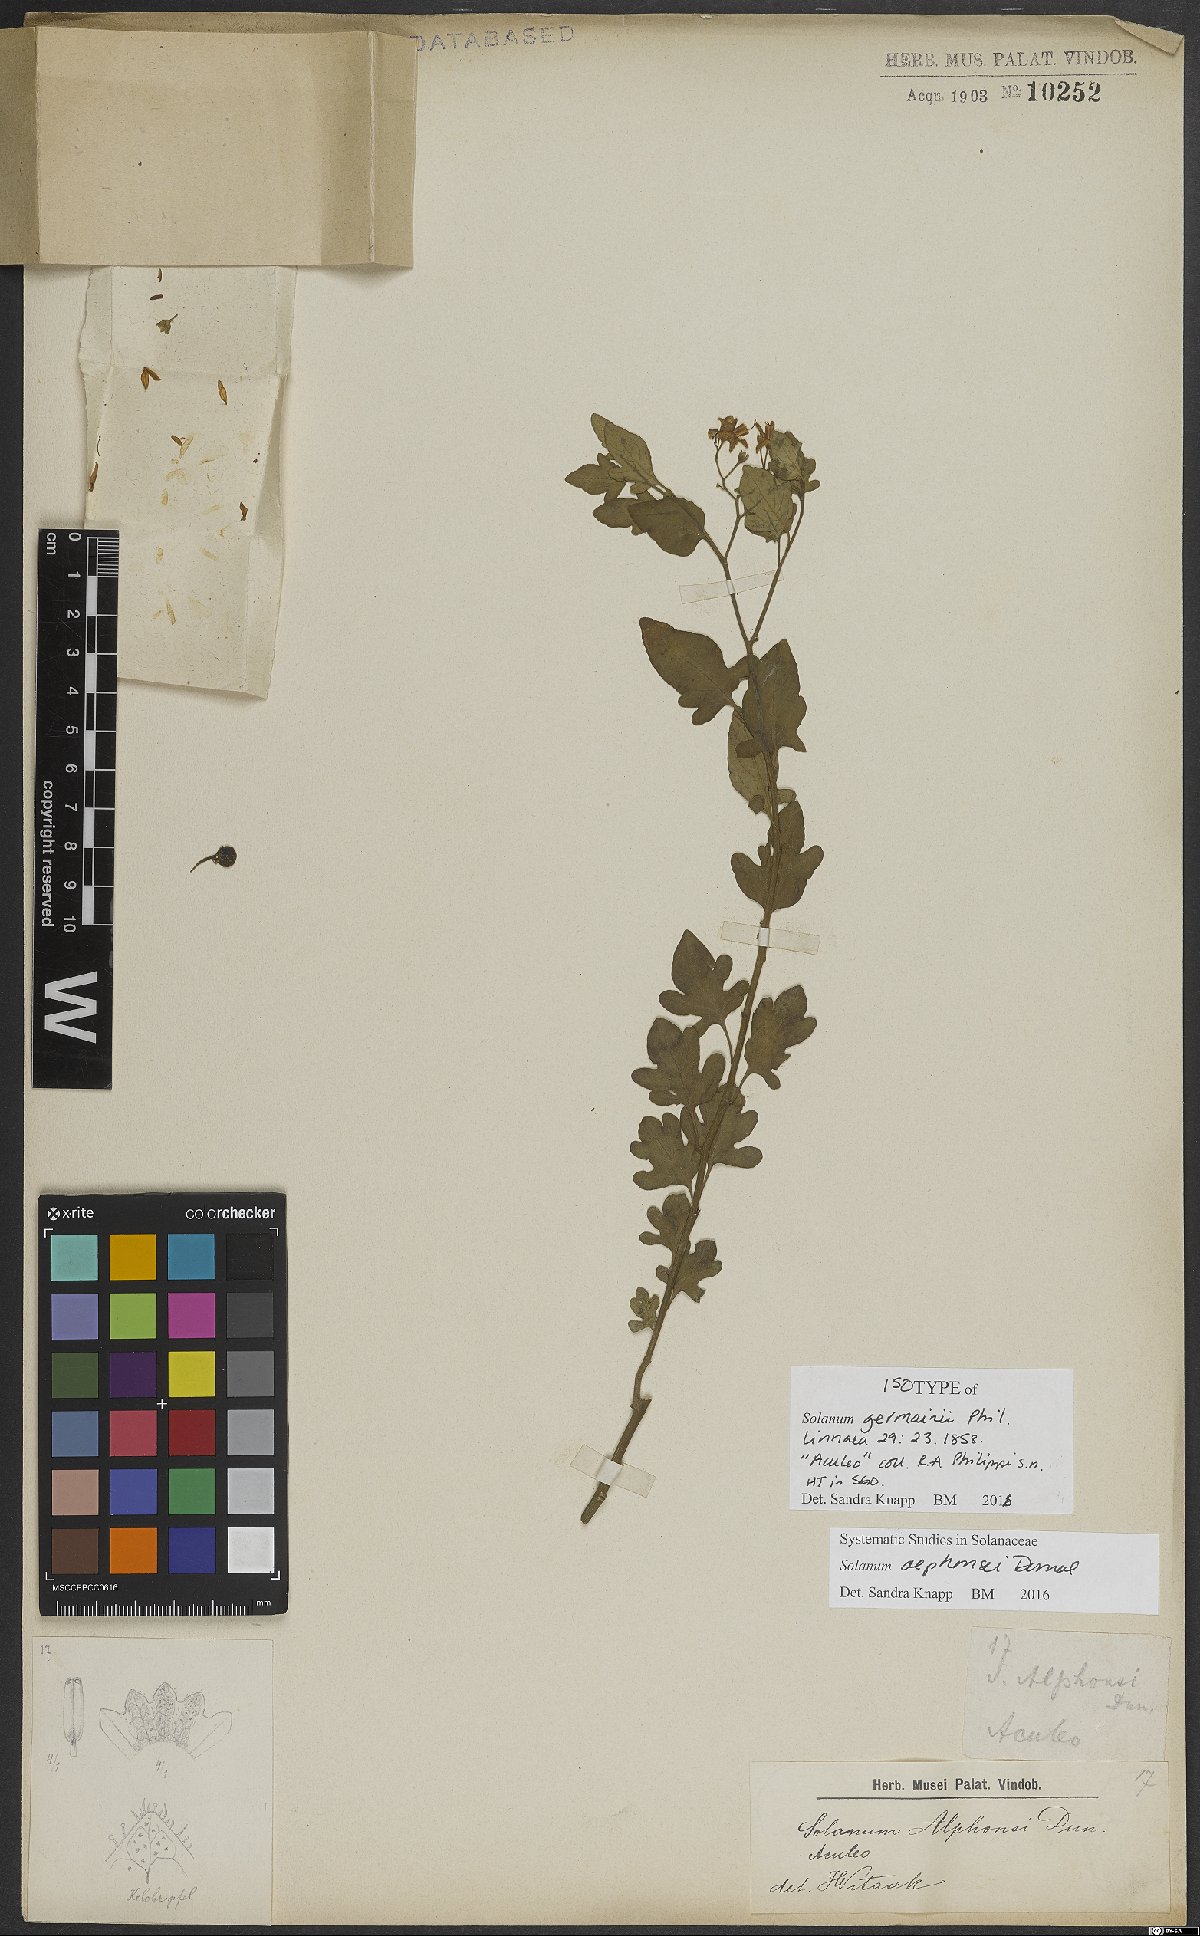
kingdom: Plantae
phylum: Tracheophyta
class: Magnoliopsida
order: Solanales
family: Solanaceae
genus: Solanum
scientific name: Solanum alphonsi
